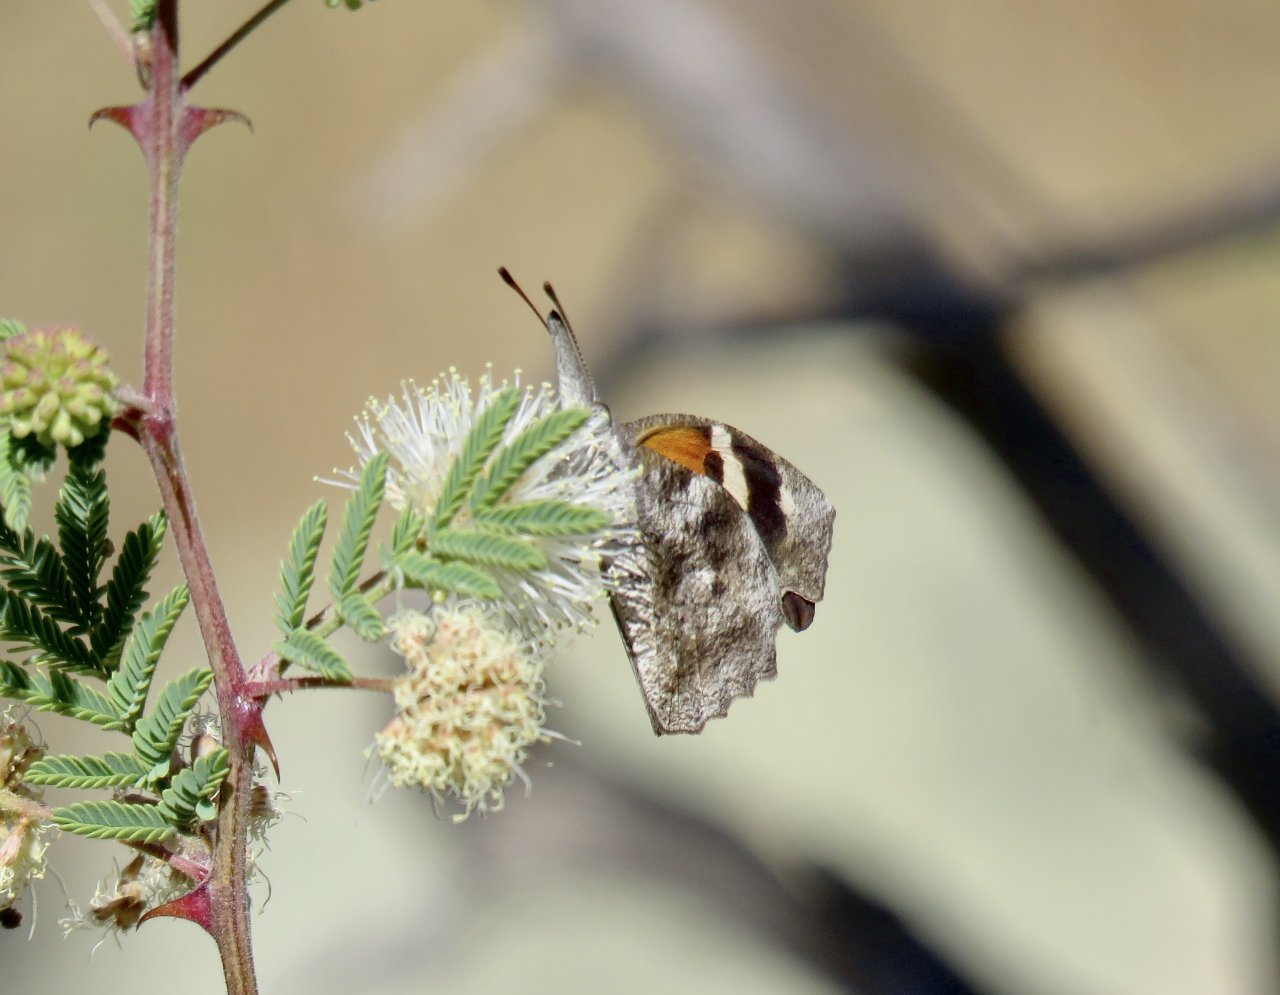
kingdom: Animalia
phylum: Arthropoda
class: Insecta
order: Lepidoptera
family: Nymphalidae
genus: Libytheana
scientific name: Libytheana carinenta
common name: American Snout
